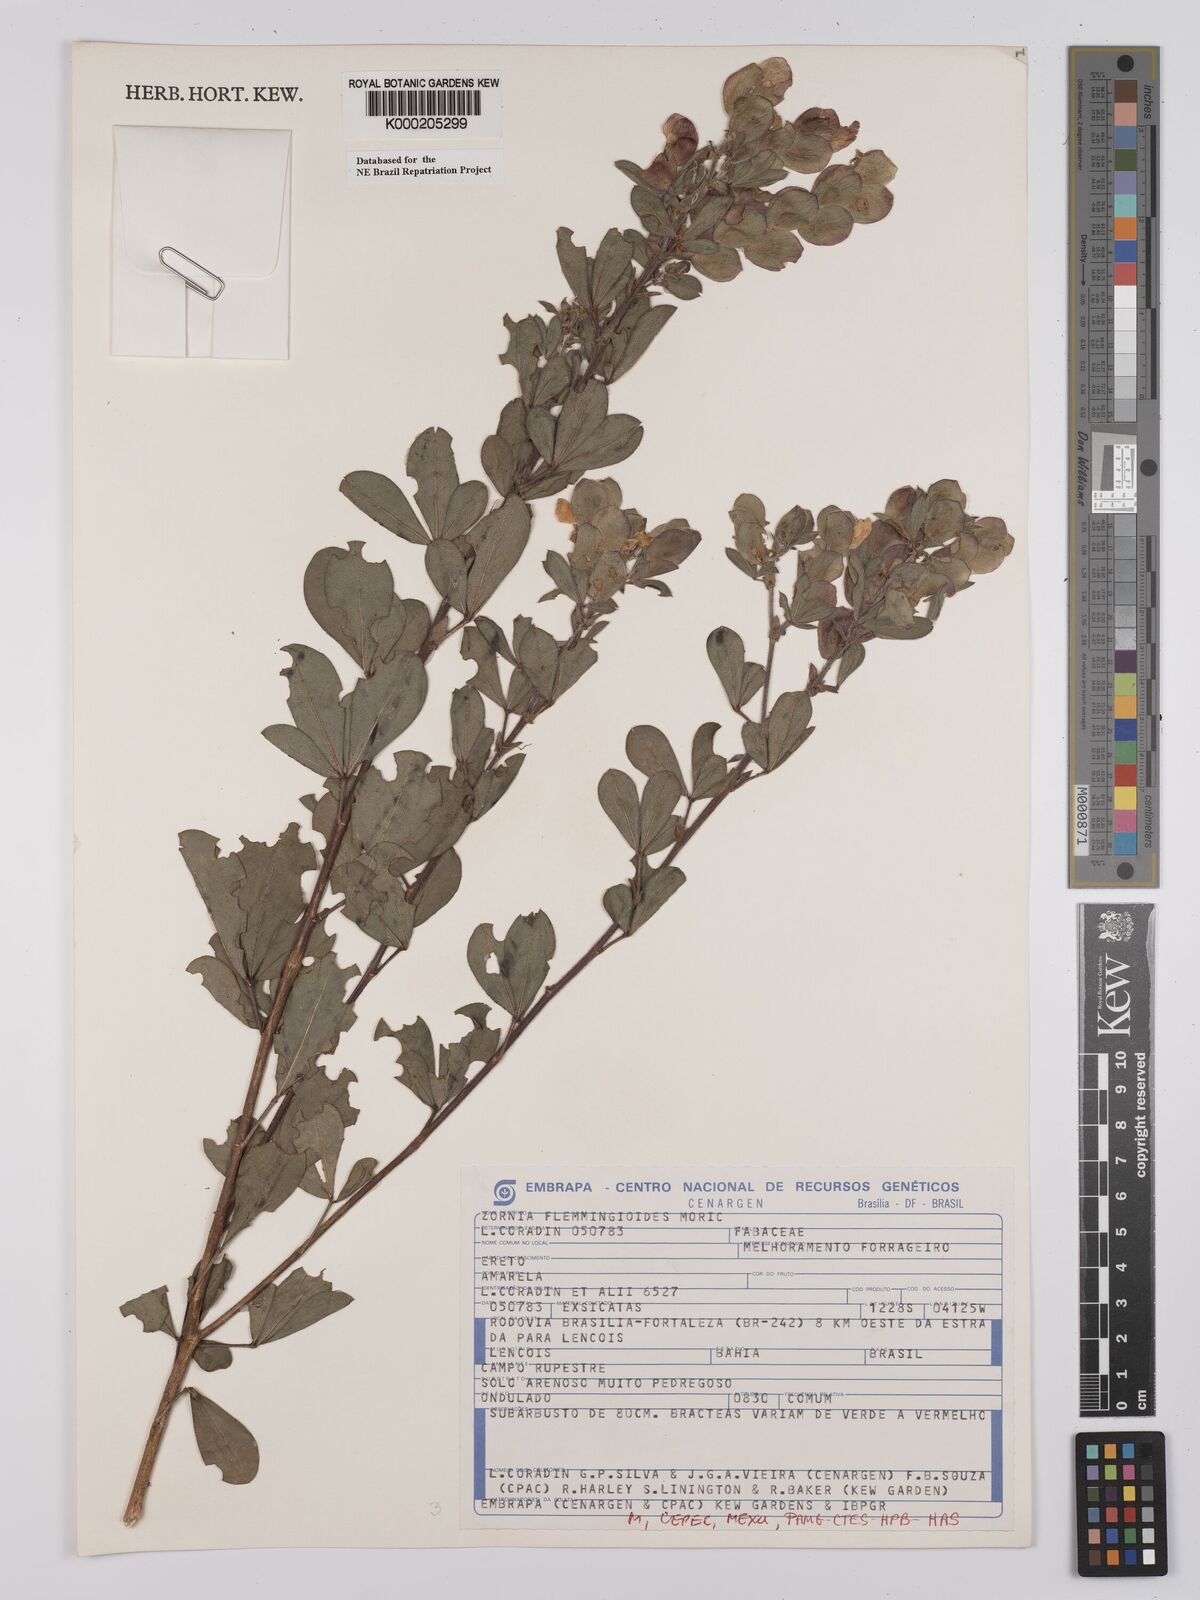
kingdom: Plantae
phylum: Tracheophyta
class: Magnoliopsida
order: Fabales
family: Fabaceae
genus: Zornia
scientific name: Zornia flemmingioides
